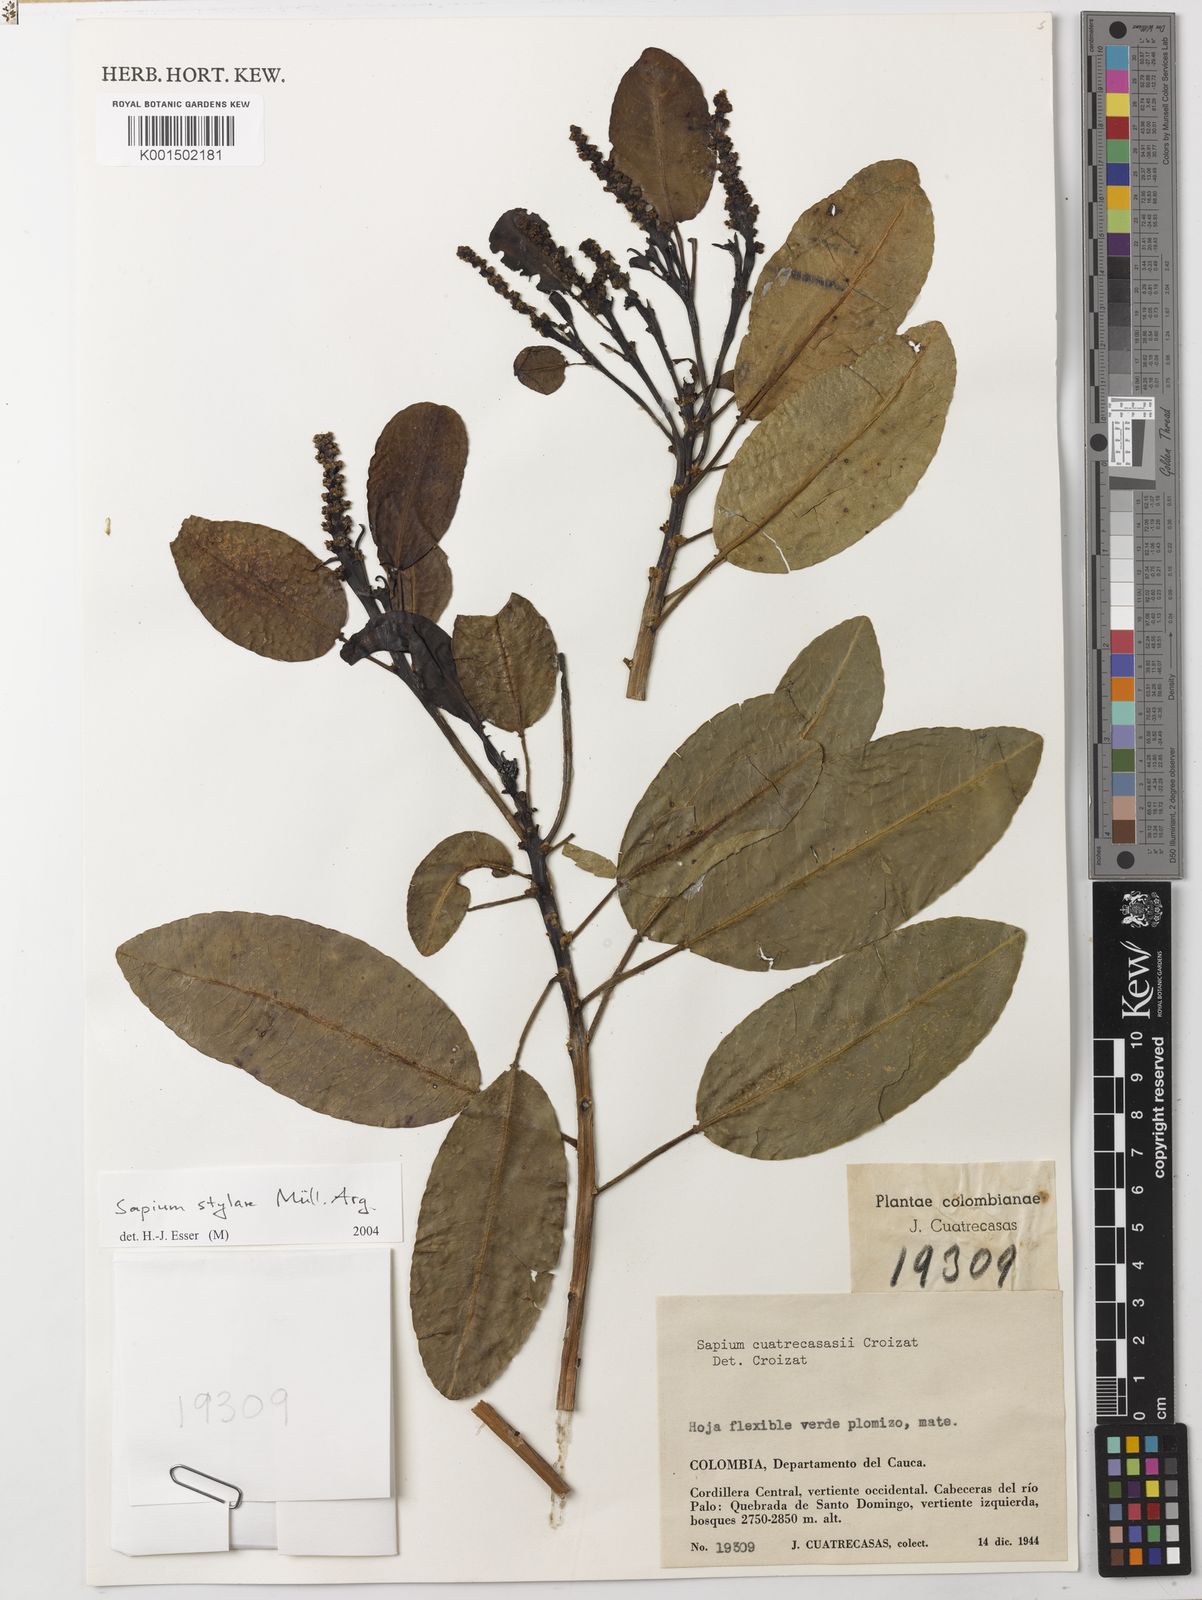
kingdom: Plantae
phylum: Tracheophyta
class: Magnoliopsida
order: Malpighiales
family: Euphorbiaceae
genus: Sapium
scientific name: Sapium stylare
